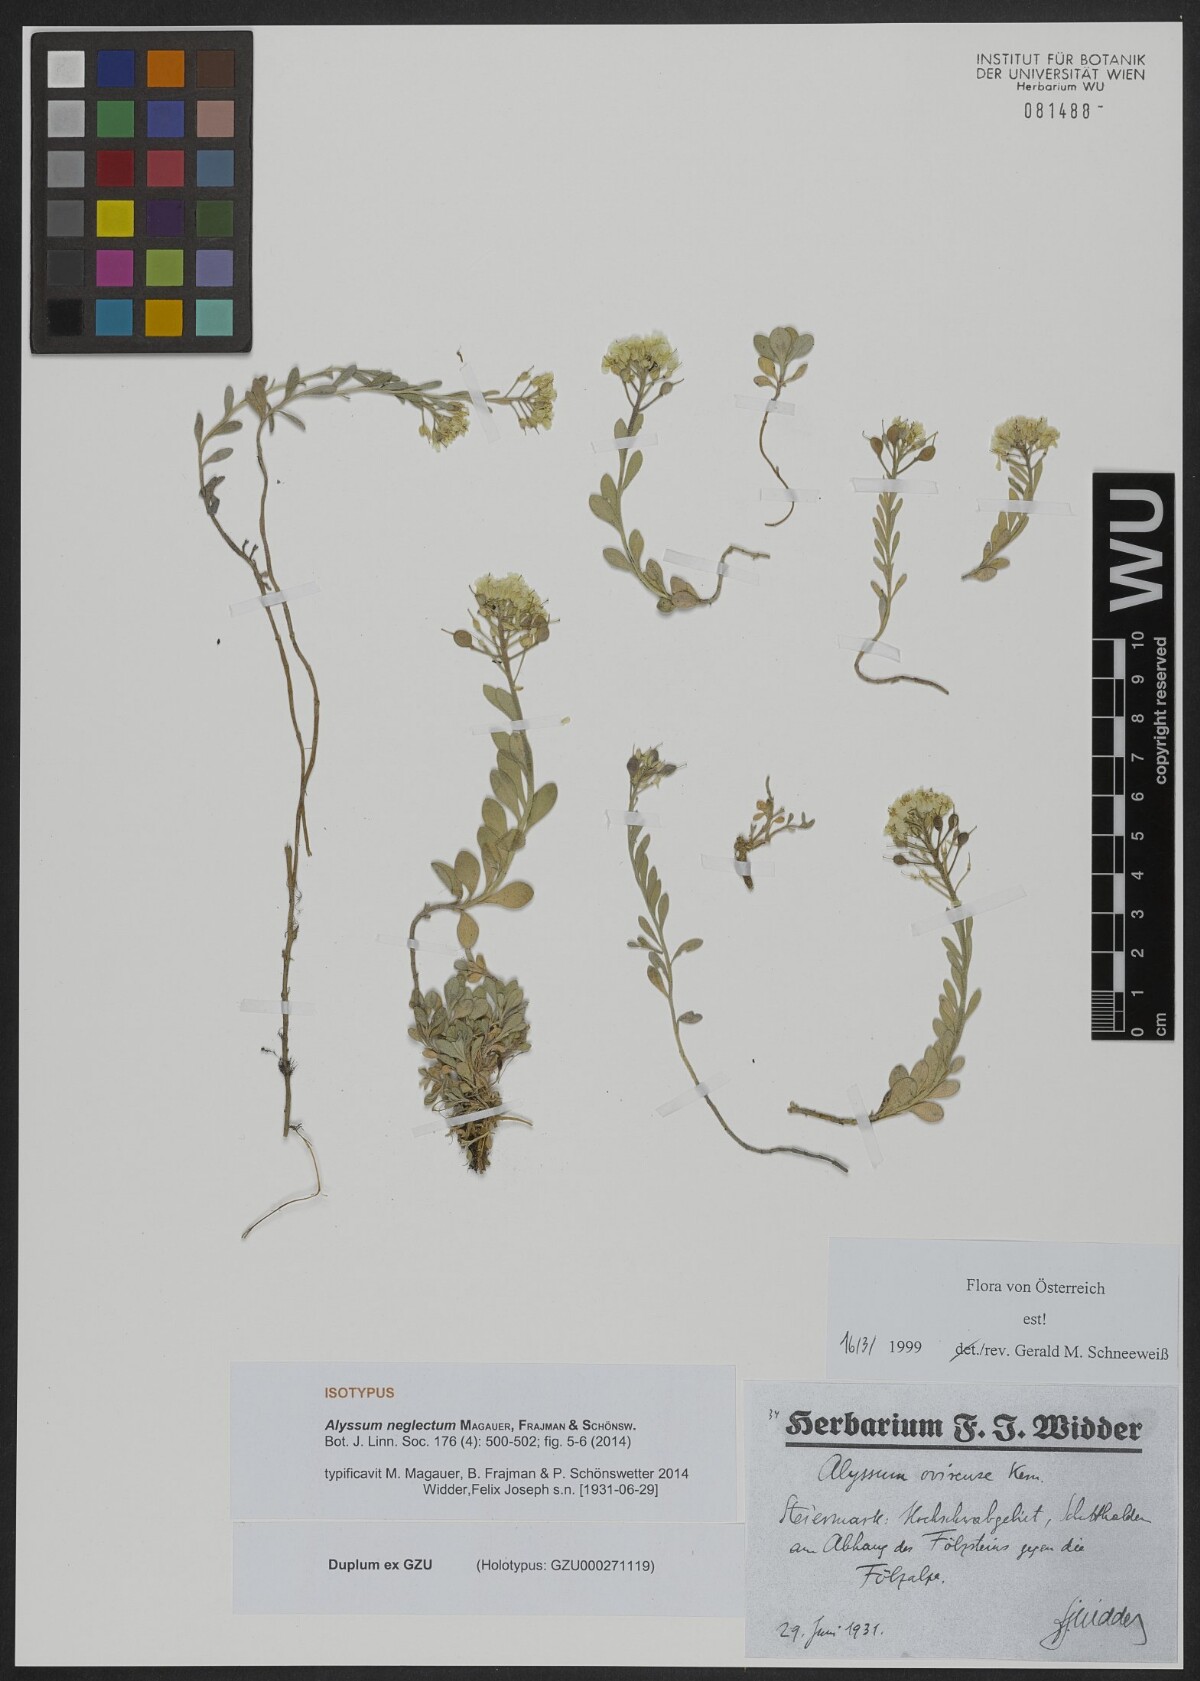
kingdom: Plantae
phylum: Tracheophyta
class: Magnoliopsida
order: Brassicales
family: Brassicaceae
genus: Alyssum
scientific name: Alyssum neglectum
